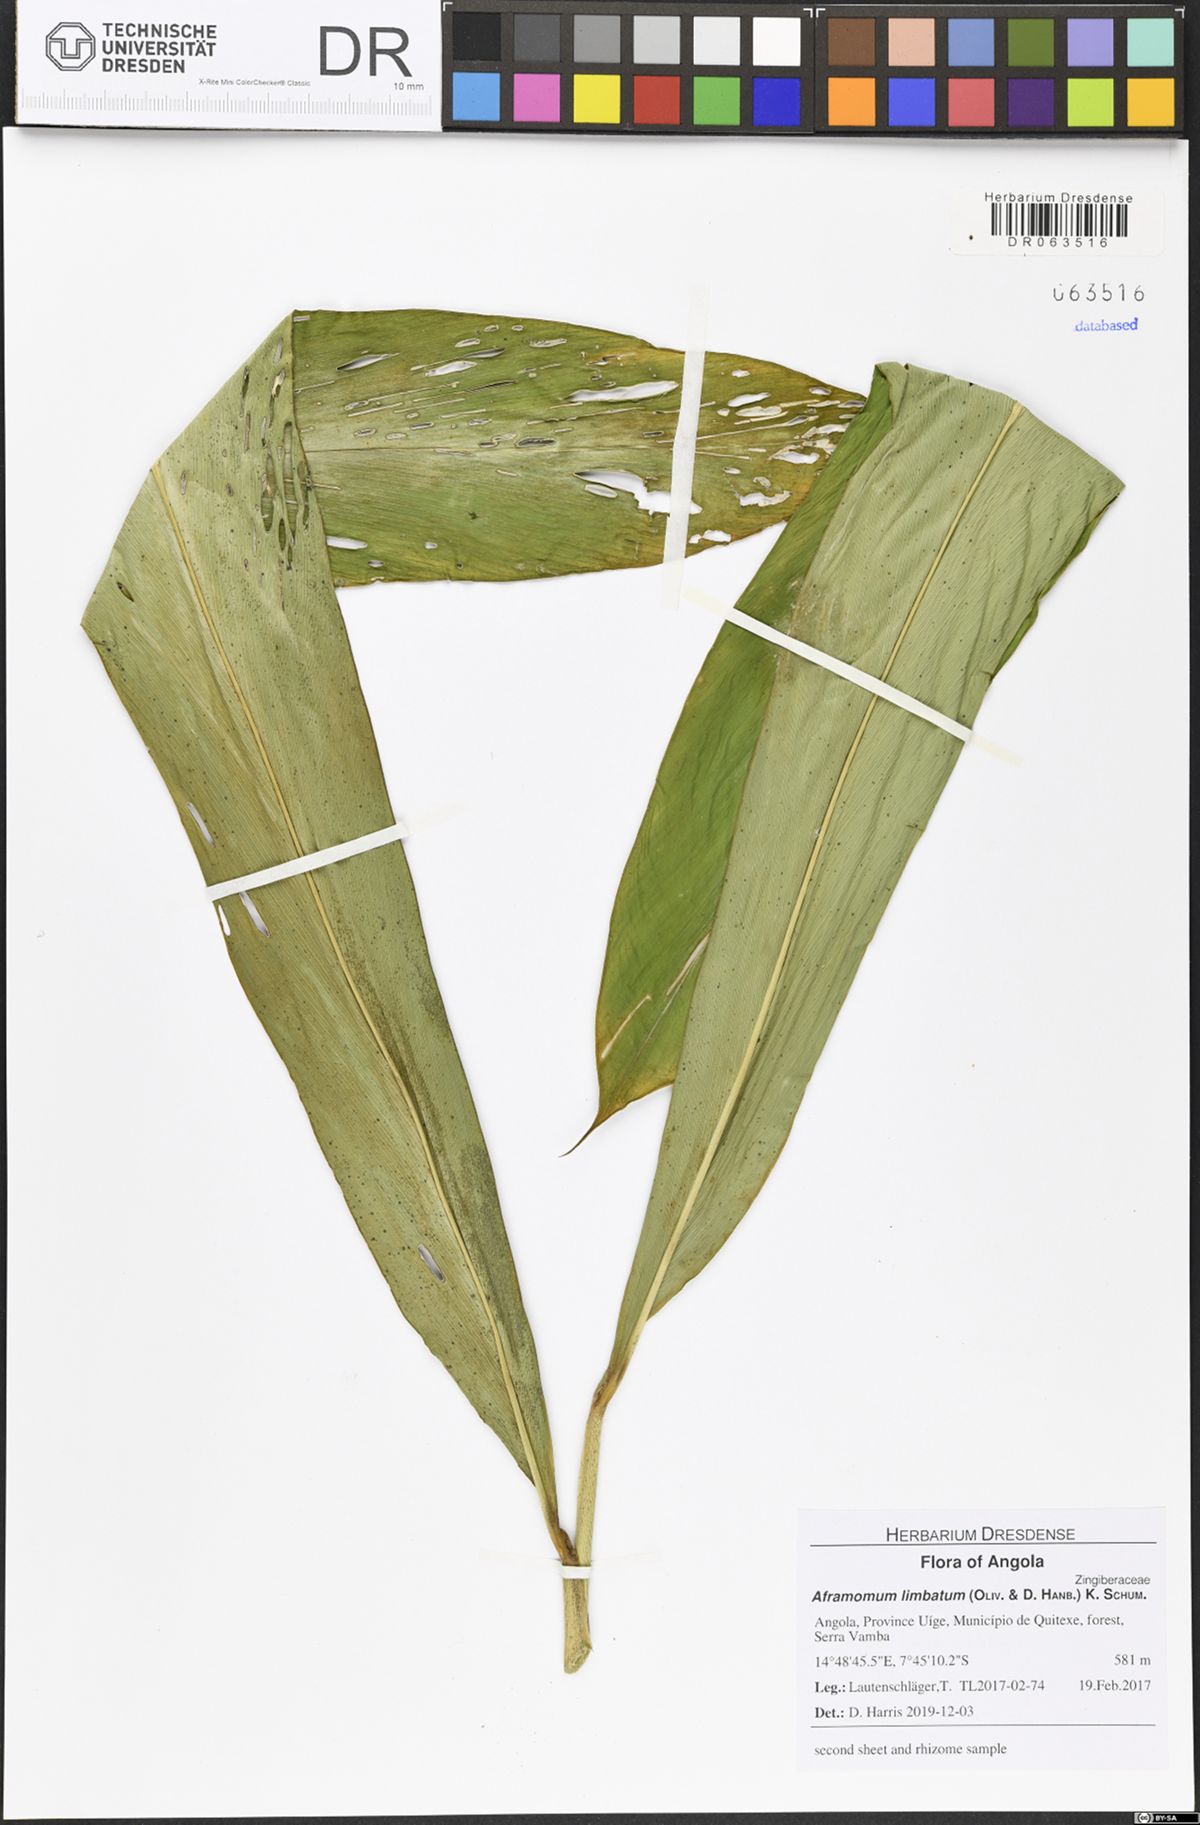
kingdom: Plantae
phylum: Tracheophyta
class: Liliopsida
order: Zingiberales
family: Zingiberaceae
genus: Aframomum
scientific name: Aframomum limbatum
